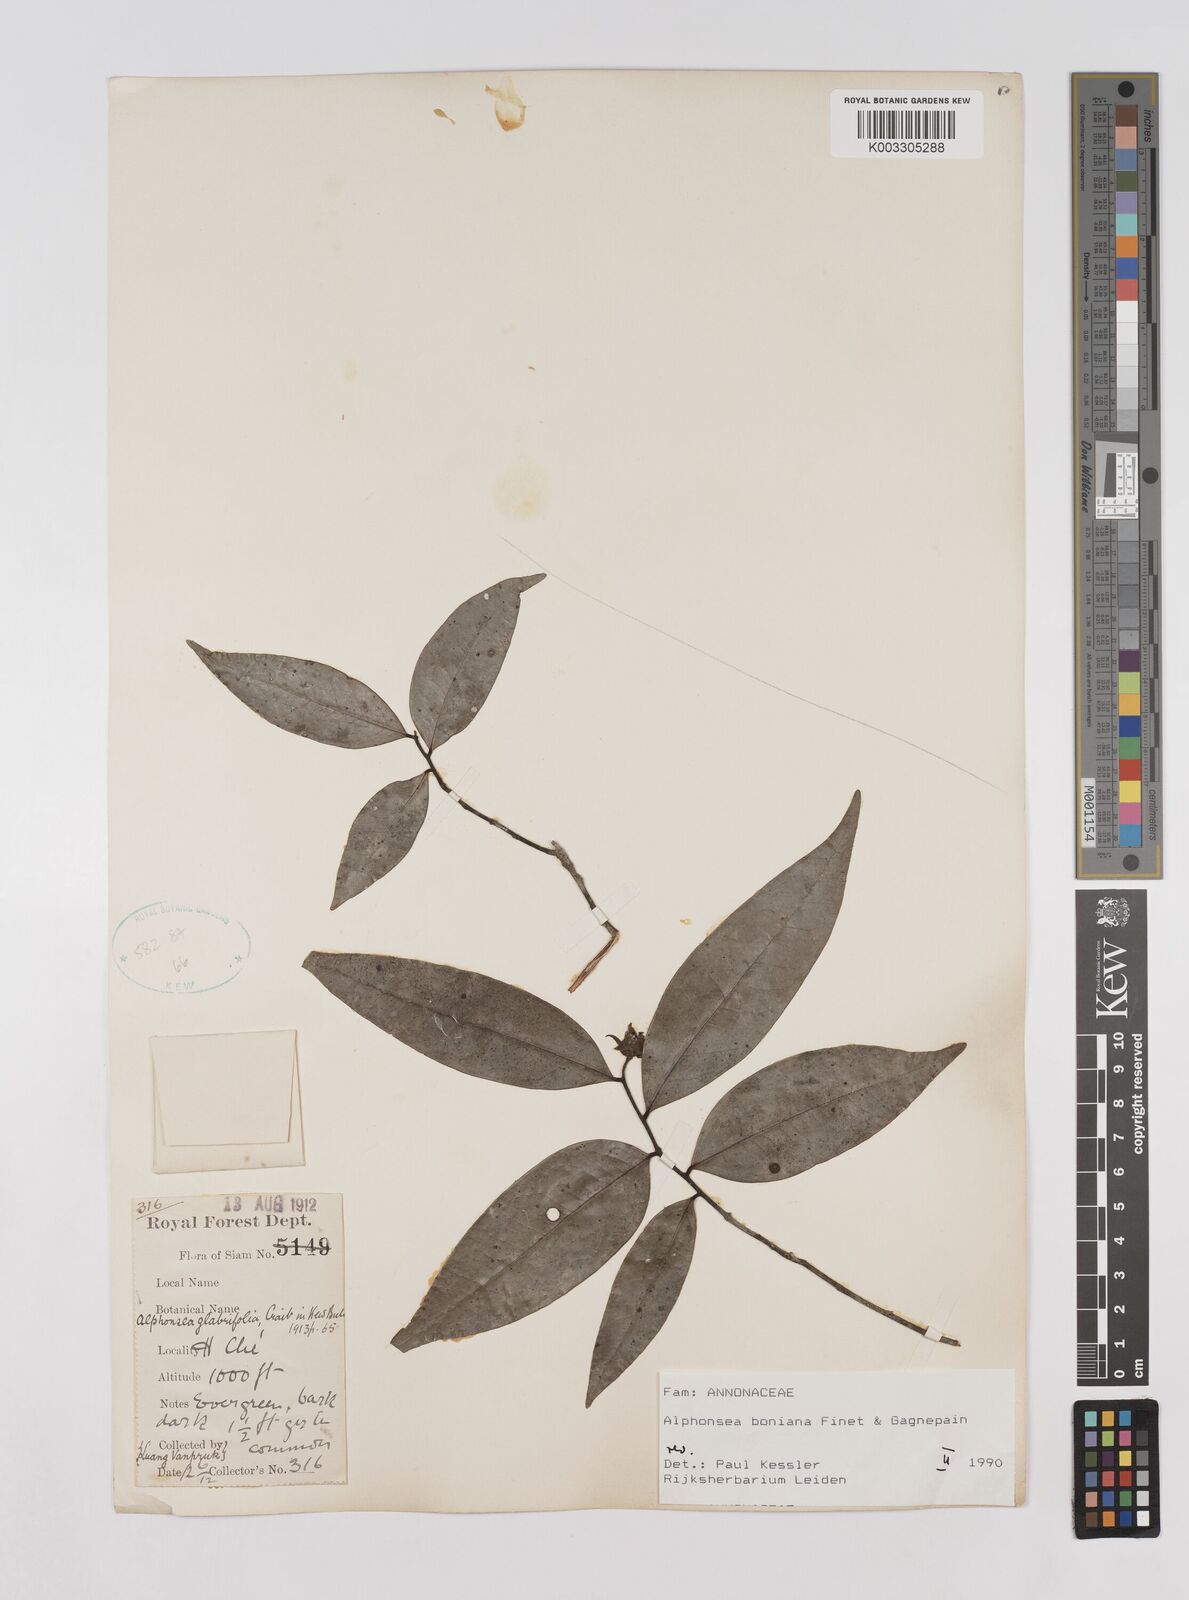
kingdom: Plantae
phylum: Tracheophyta
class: Magnoliopsida
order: Magnoliales
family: Annonaceae
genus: Alphonsea
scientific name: Alphonsea boniana
